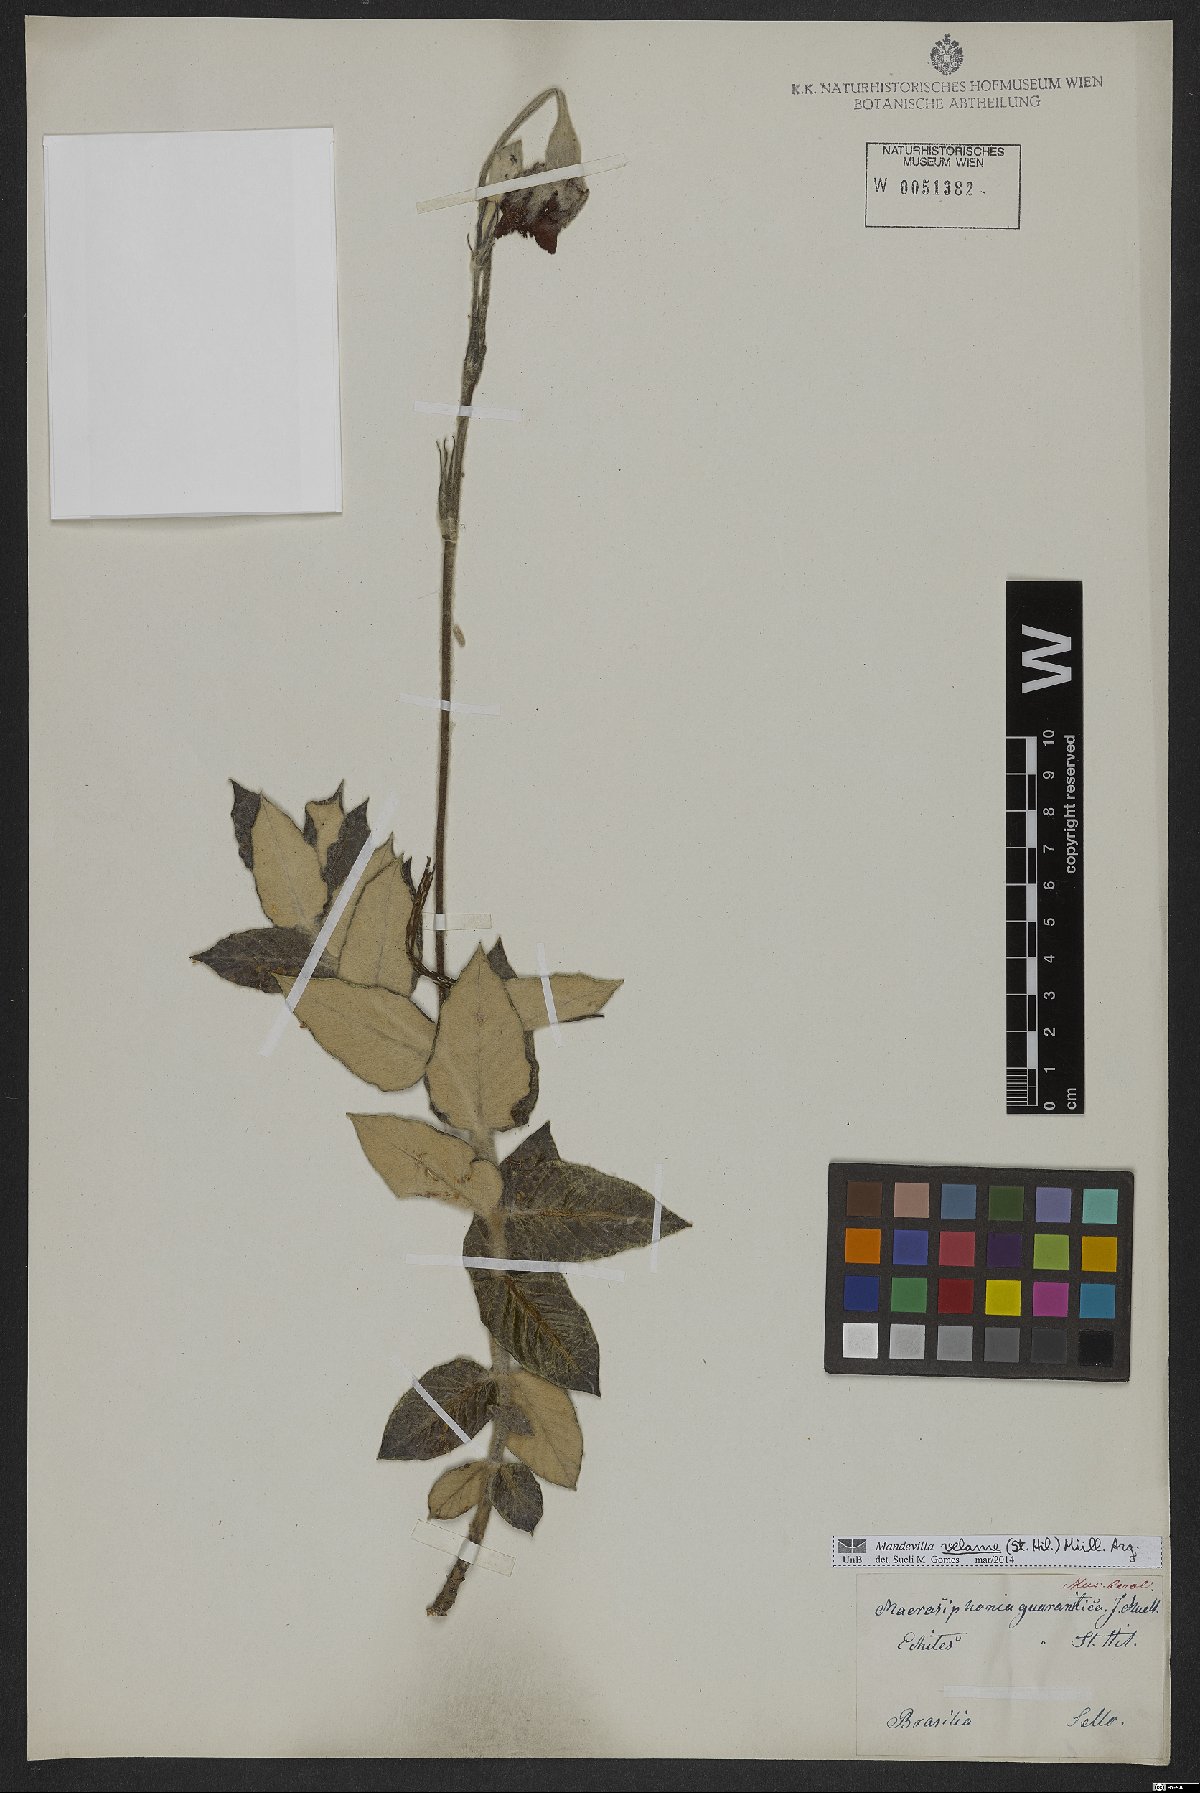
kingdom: Plantae
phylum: Tracheophyta
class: Magnoliopsida
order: Gentianales
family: Apocynaceae
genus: Mandevilla
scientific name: Mandevilla velame
